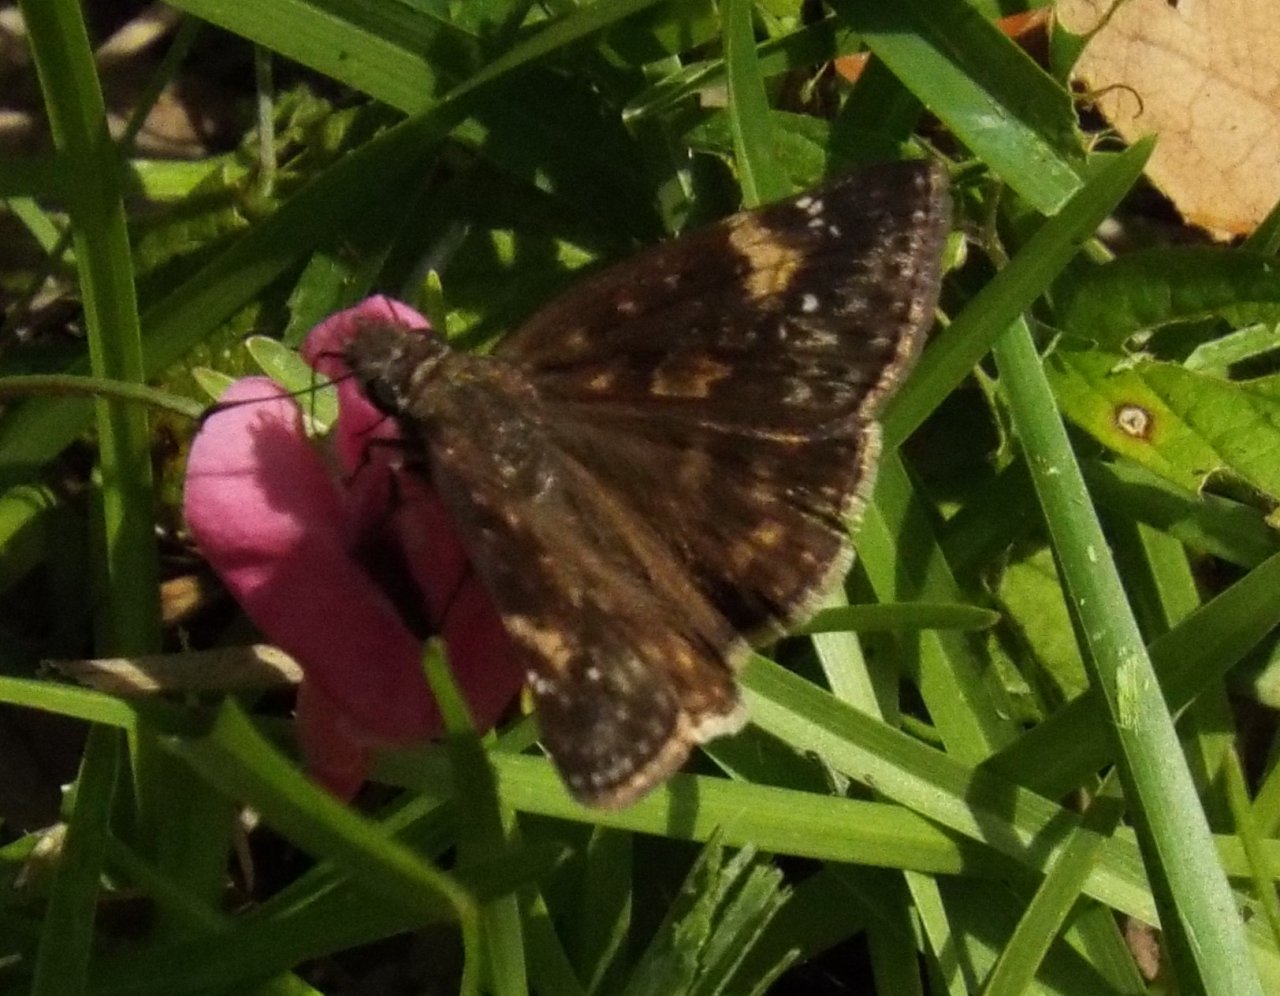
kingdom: Animalia
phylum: Arthropoda
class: Insecta
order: Lepidoptera
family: Hesperiidae
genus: Erynnis
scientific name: Erynnis zarucco
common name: Zarucco Duskywing
